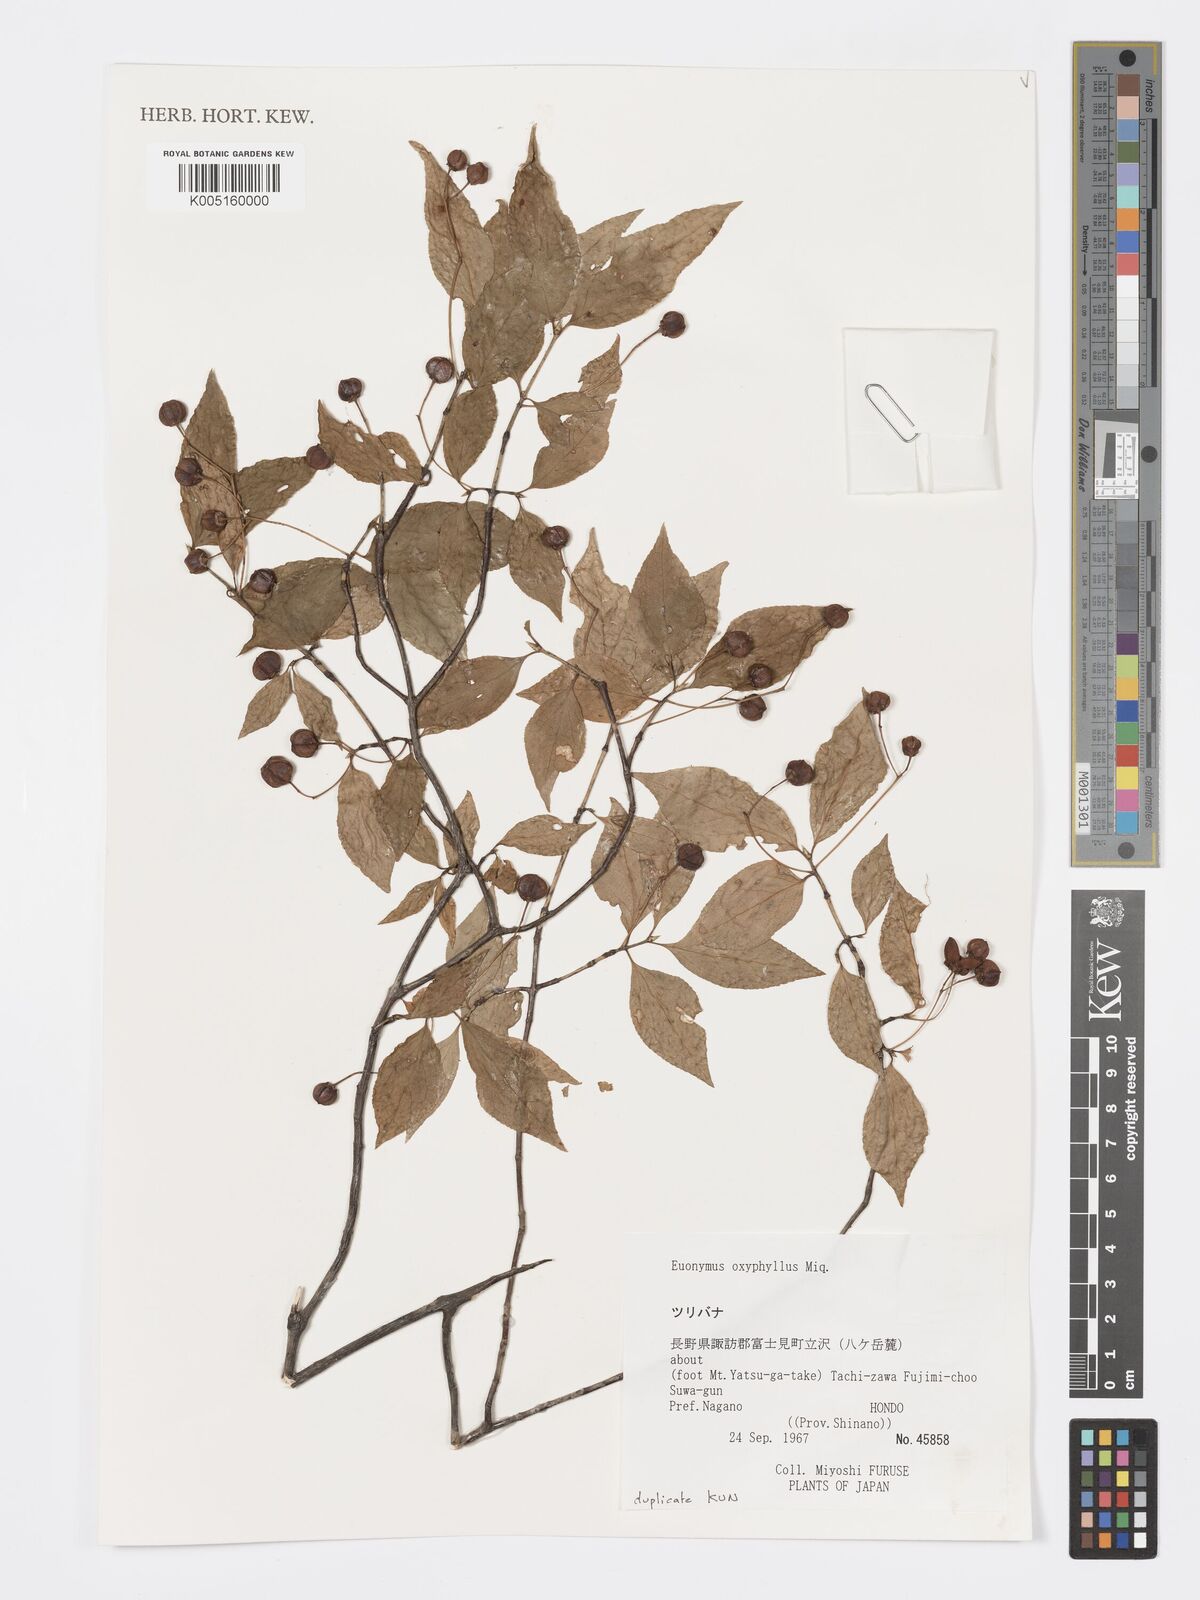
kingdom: Plantae
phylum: Tracheophyta
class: Magnoliopsida
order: Celastrales
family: Celastraceae
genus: Euonymus
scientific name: Euonymus oxyphyllus
